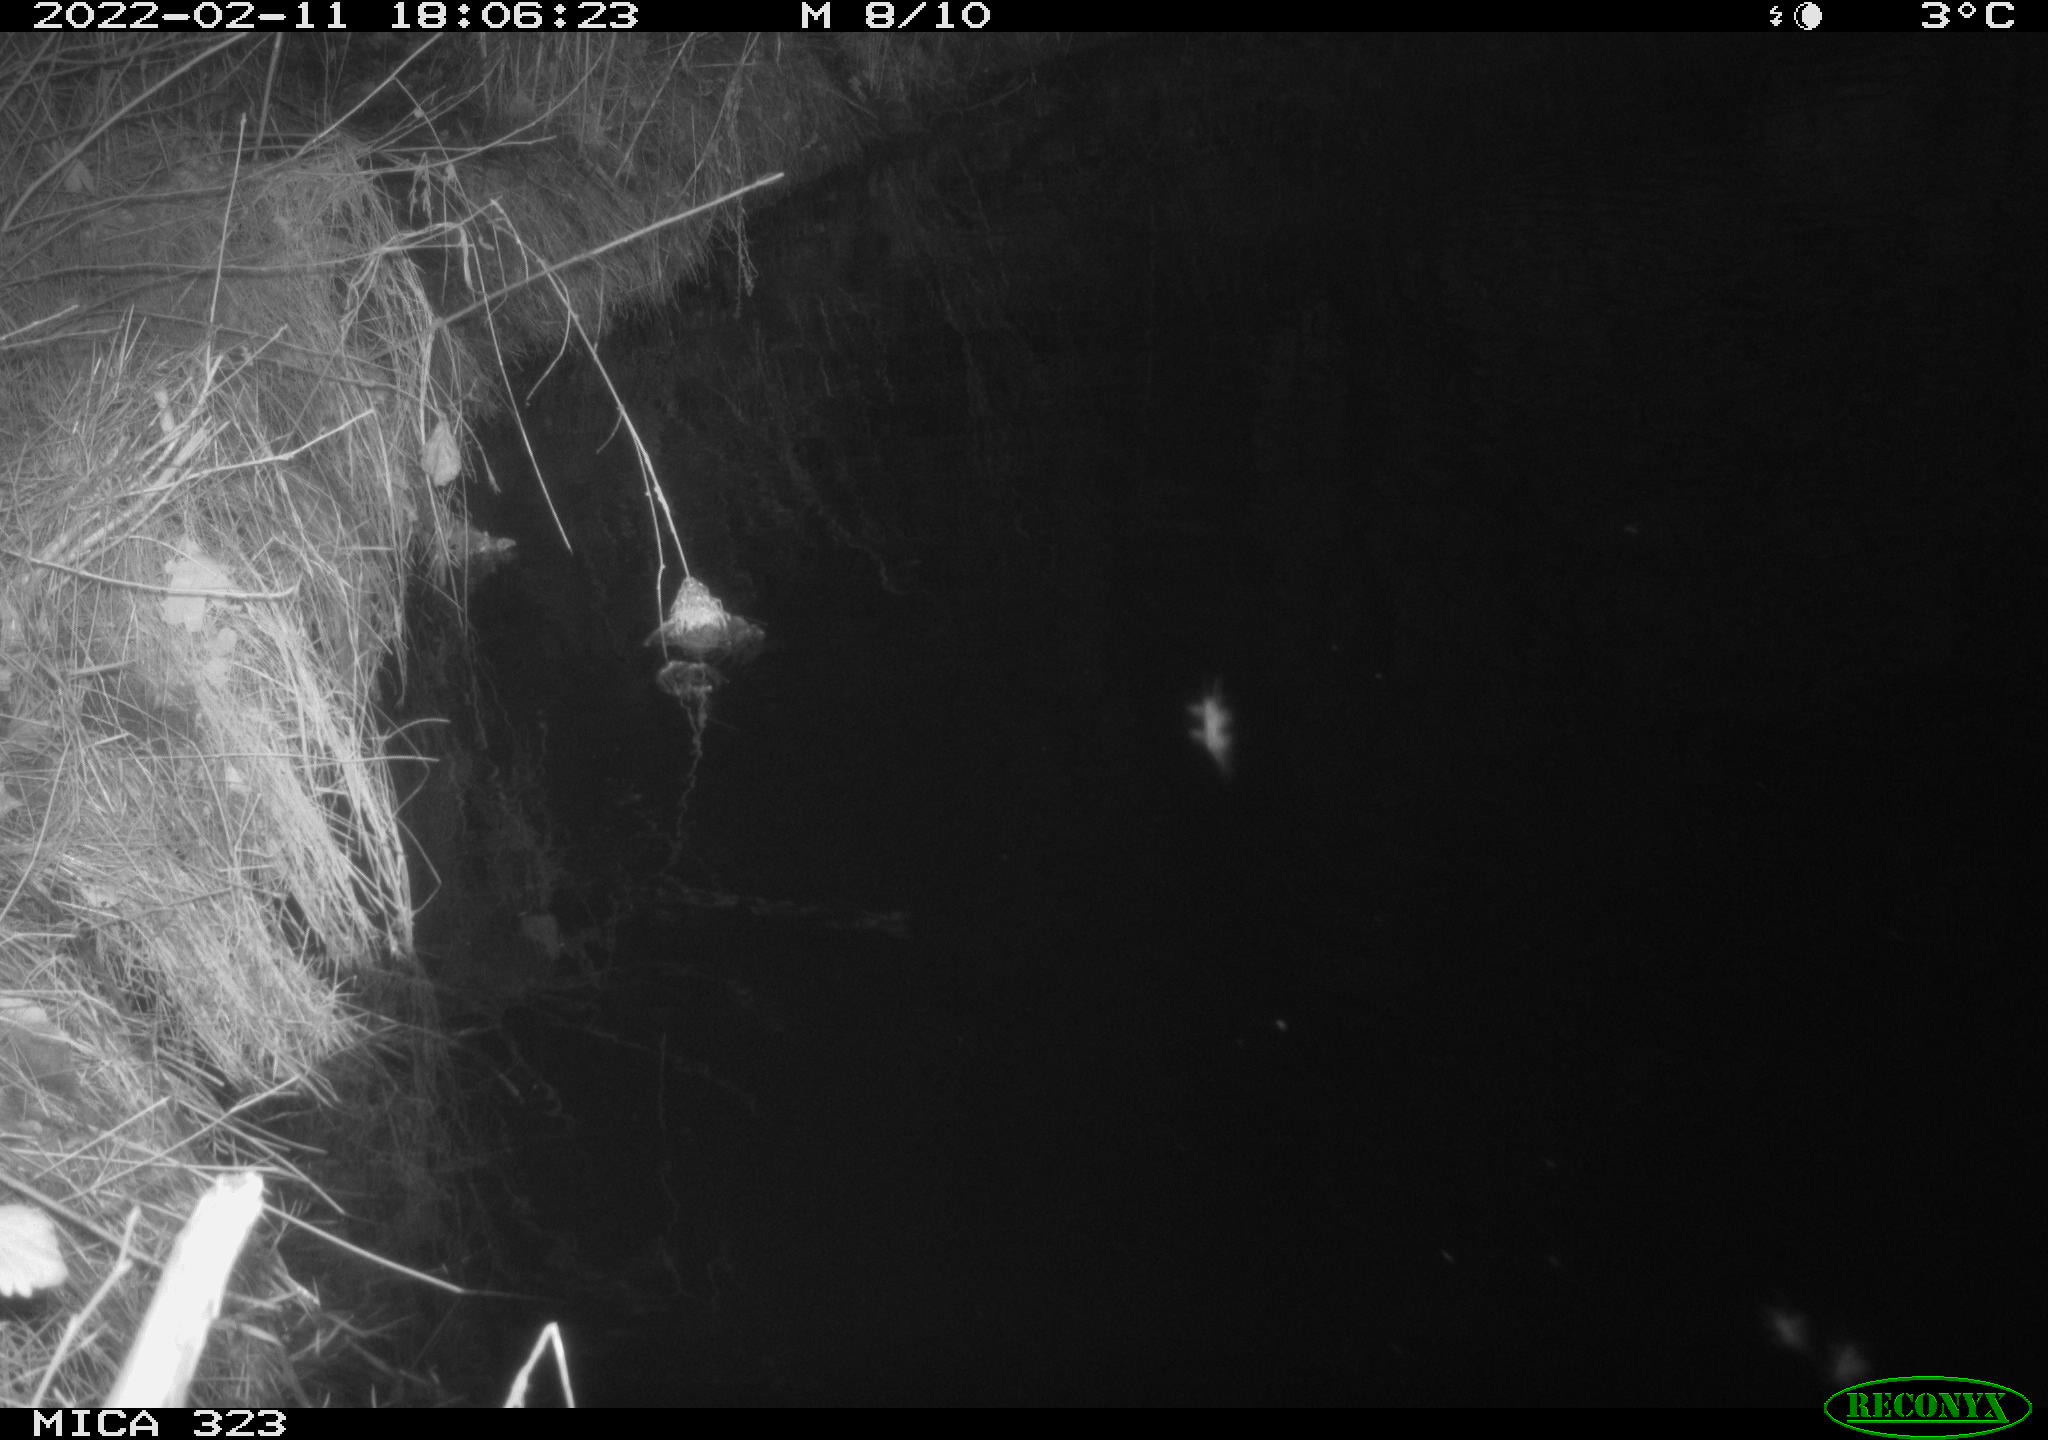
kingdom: Animalia
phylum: Chordata
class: Mammalia
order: Rodentia
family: Cricetidae
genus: Ondatra
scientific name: Ondatra zibethicus
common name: Muskrat
